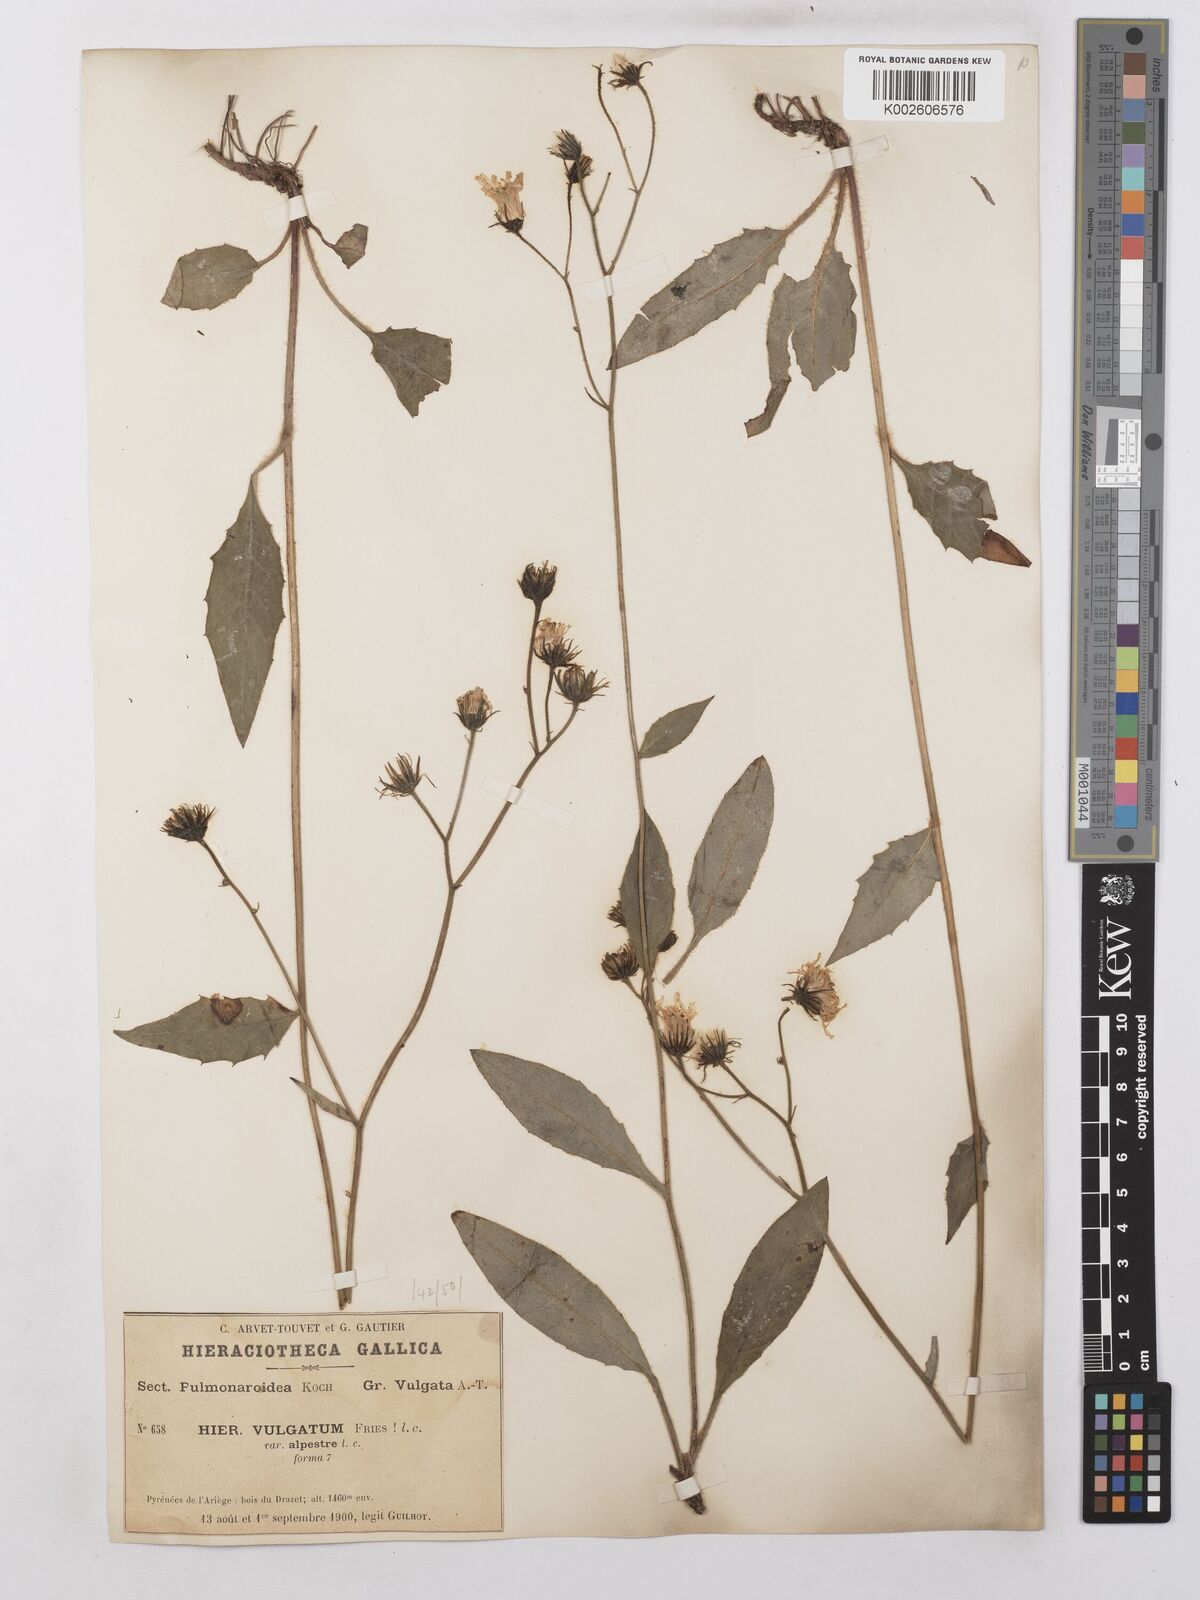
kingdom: Plantae
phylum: Tracheophyta
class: Magnoliopsida
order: Asterales
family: Asteraceae
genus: Hieracium
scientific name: Hieracium lachenalii
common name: Common hawkweed
